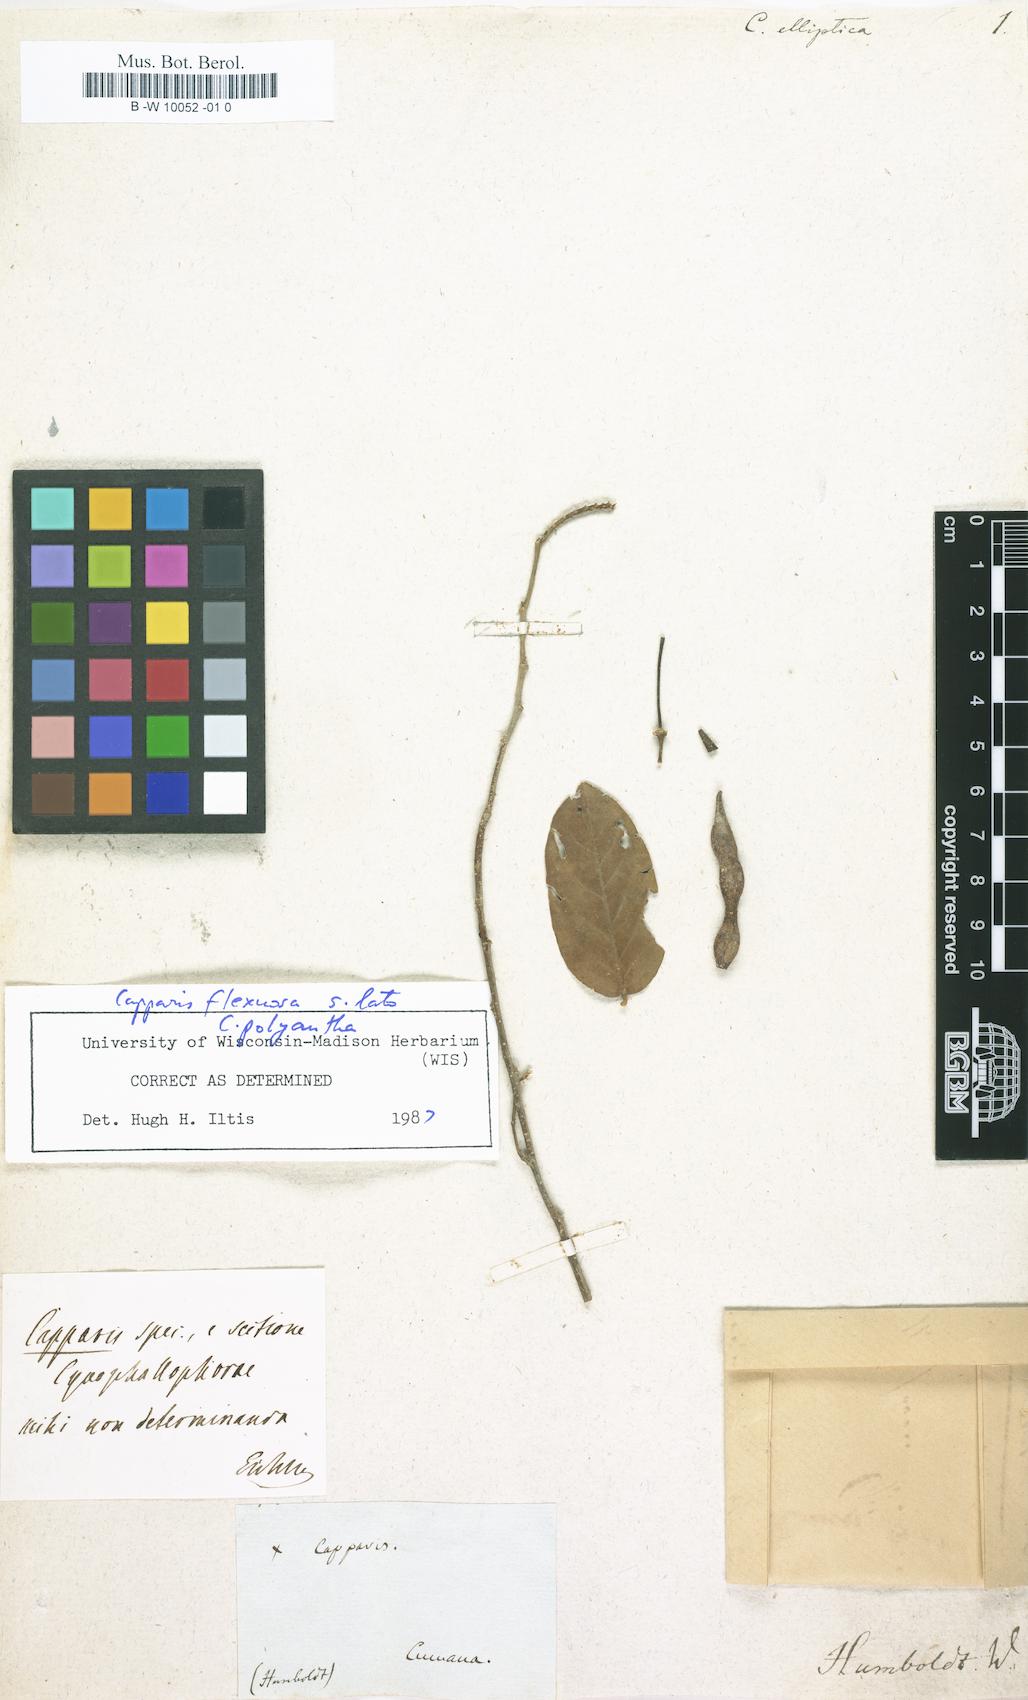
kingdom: Plantae
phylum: Tracheophyta
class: Magnoliopsida
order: Brassicales
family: Capparaceae
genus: Capparis
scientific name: Capparis
